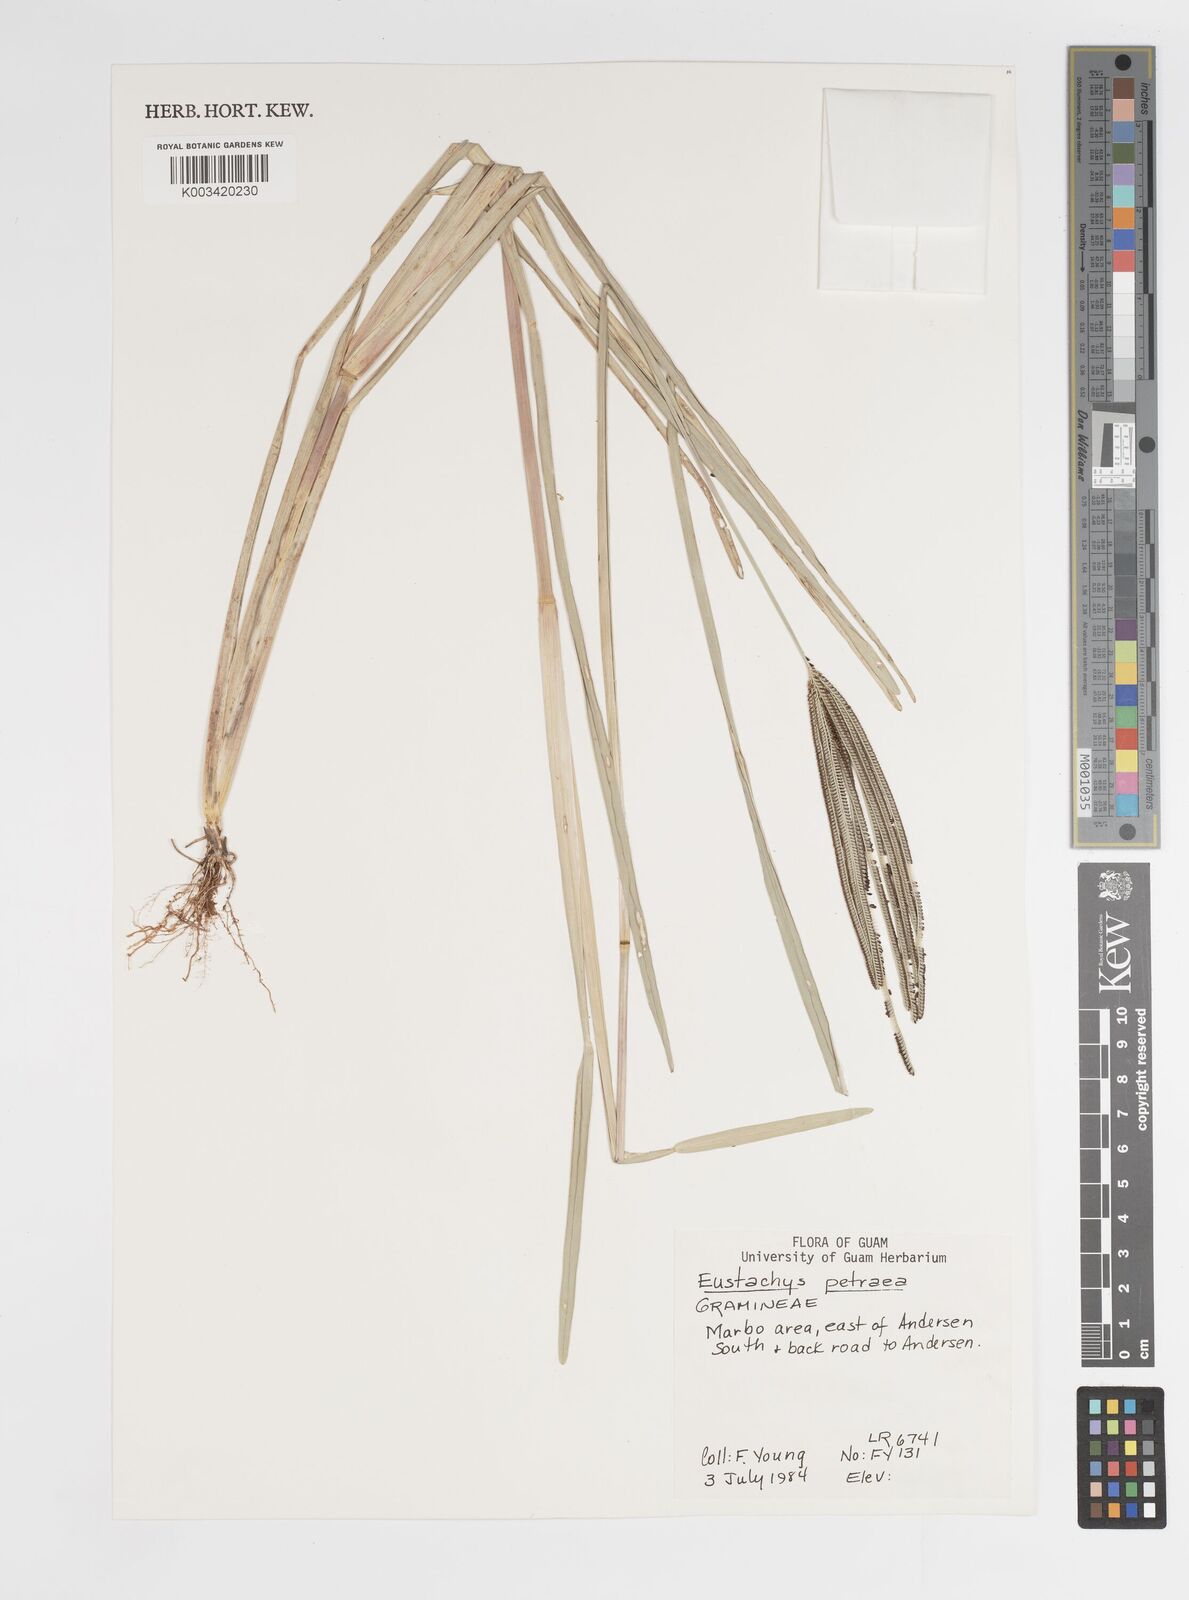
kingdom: Plantae
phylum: Tracheophyta
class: Liliopsida
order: Poales
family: Poaceae
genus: Eustachys
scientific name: Eustachys petraea
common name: Pinewoods fingergrass
